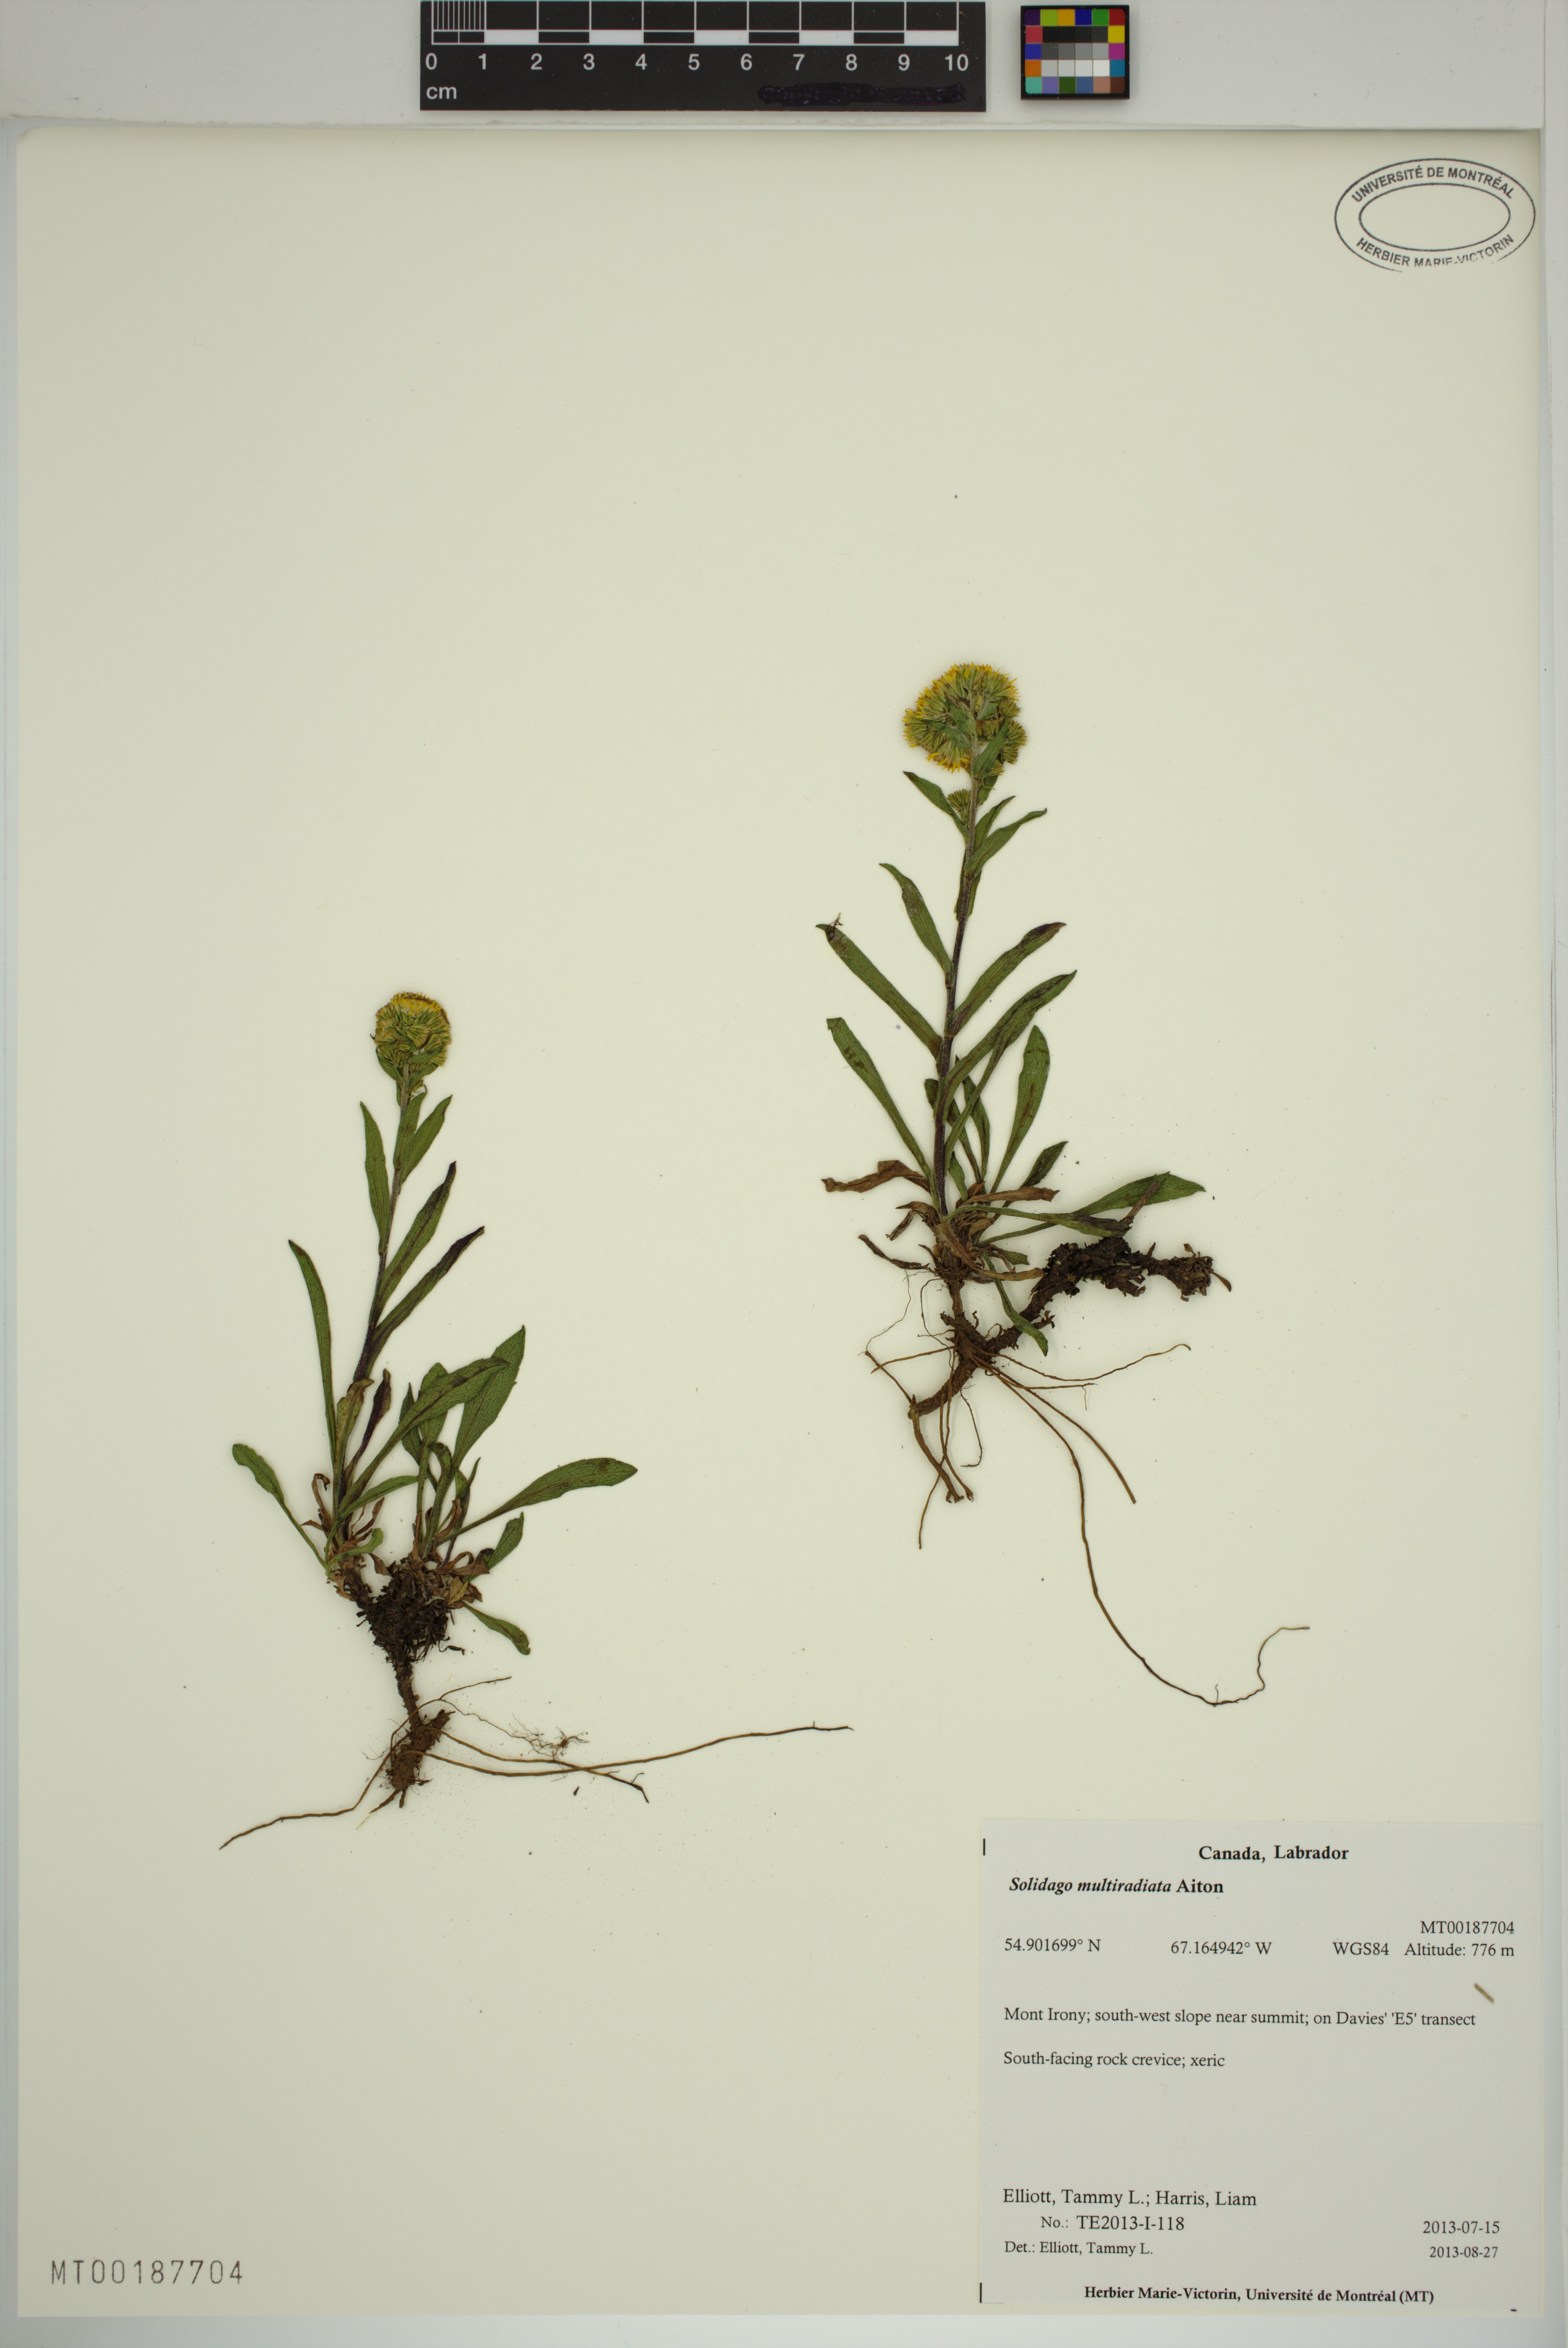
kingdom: Plantae
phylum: Tracheophyta
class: Magnoliopsida
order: Asterales
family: Asteraceae
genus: Solidago
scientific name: Solidago multiradiata
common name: Northern goldenrod
